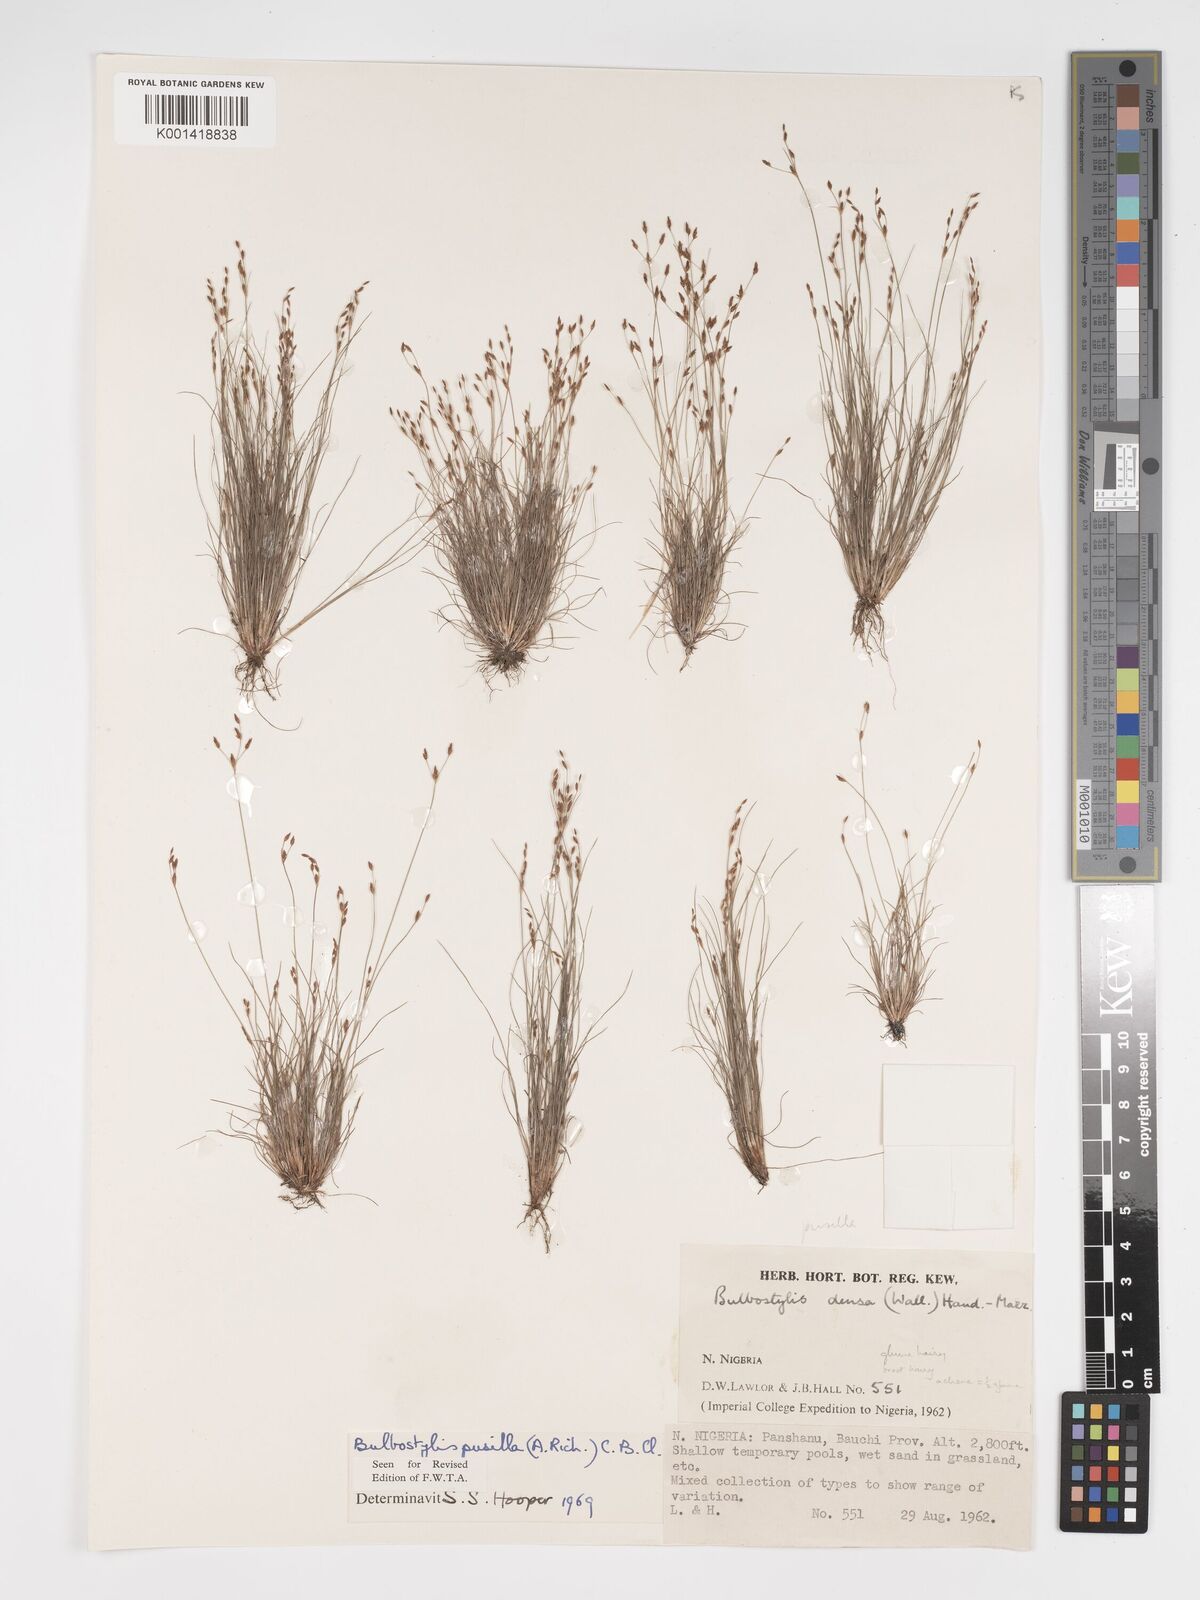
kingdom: Plantae
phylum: Tracheophyta
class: Liliopsida
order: Poales
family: Cyperaceae
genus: Bulbostylis
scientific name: Bulbostylis pusilla
